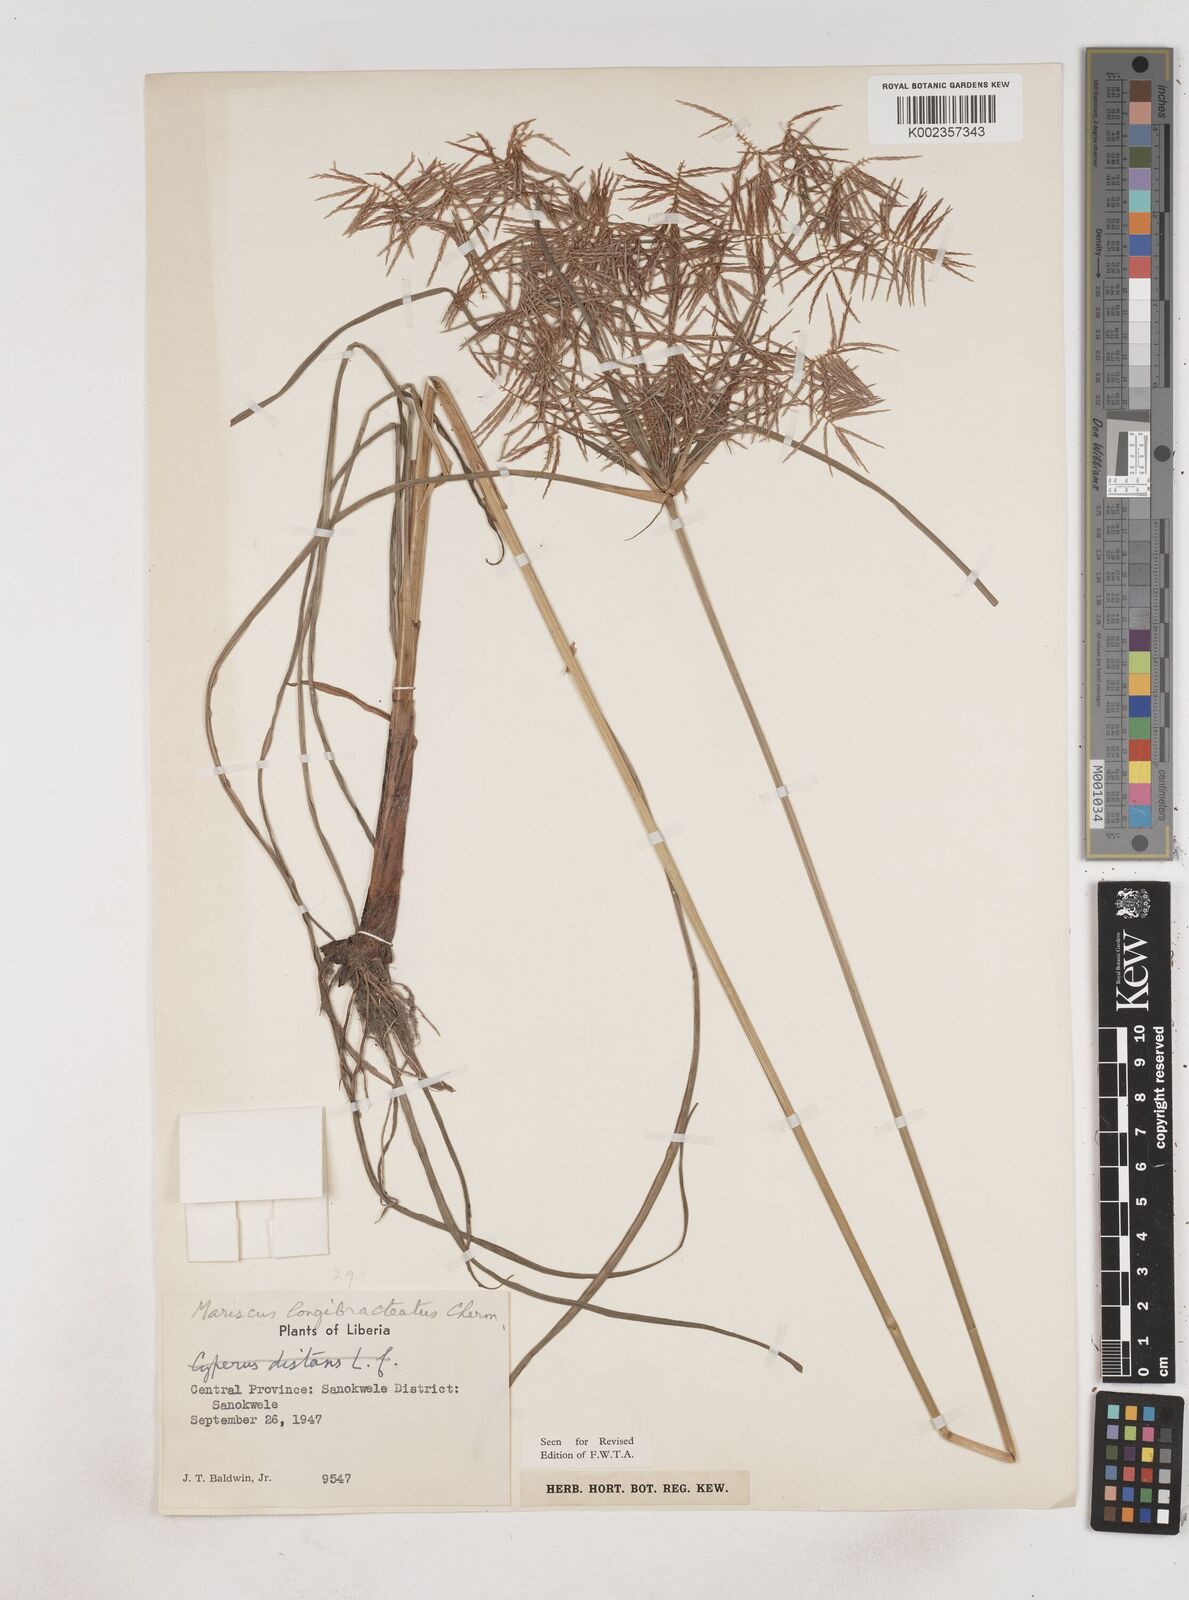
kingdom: Plantae
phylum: Tracheophyta
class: Liliopsida
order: Poales
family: Cyperaceae
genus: Cyperus
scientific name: Cyperus distans
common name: Slender cyperus
